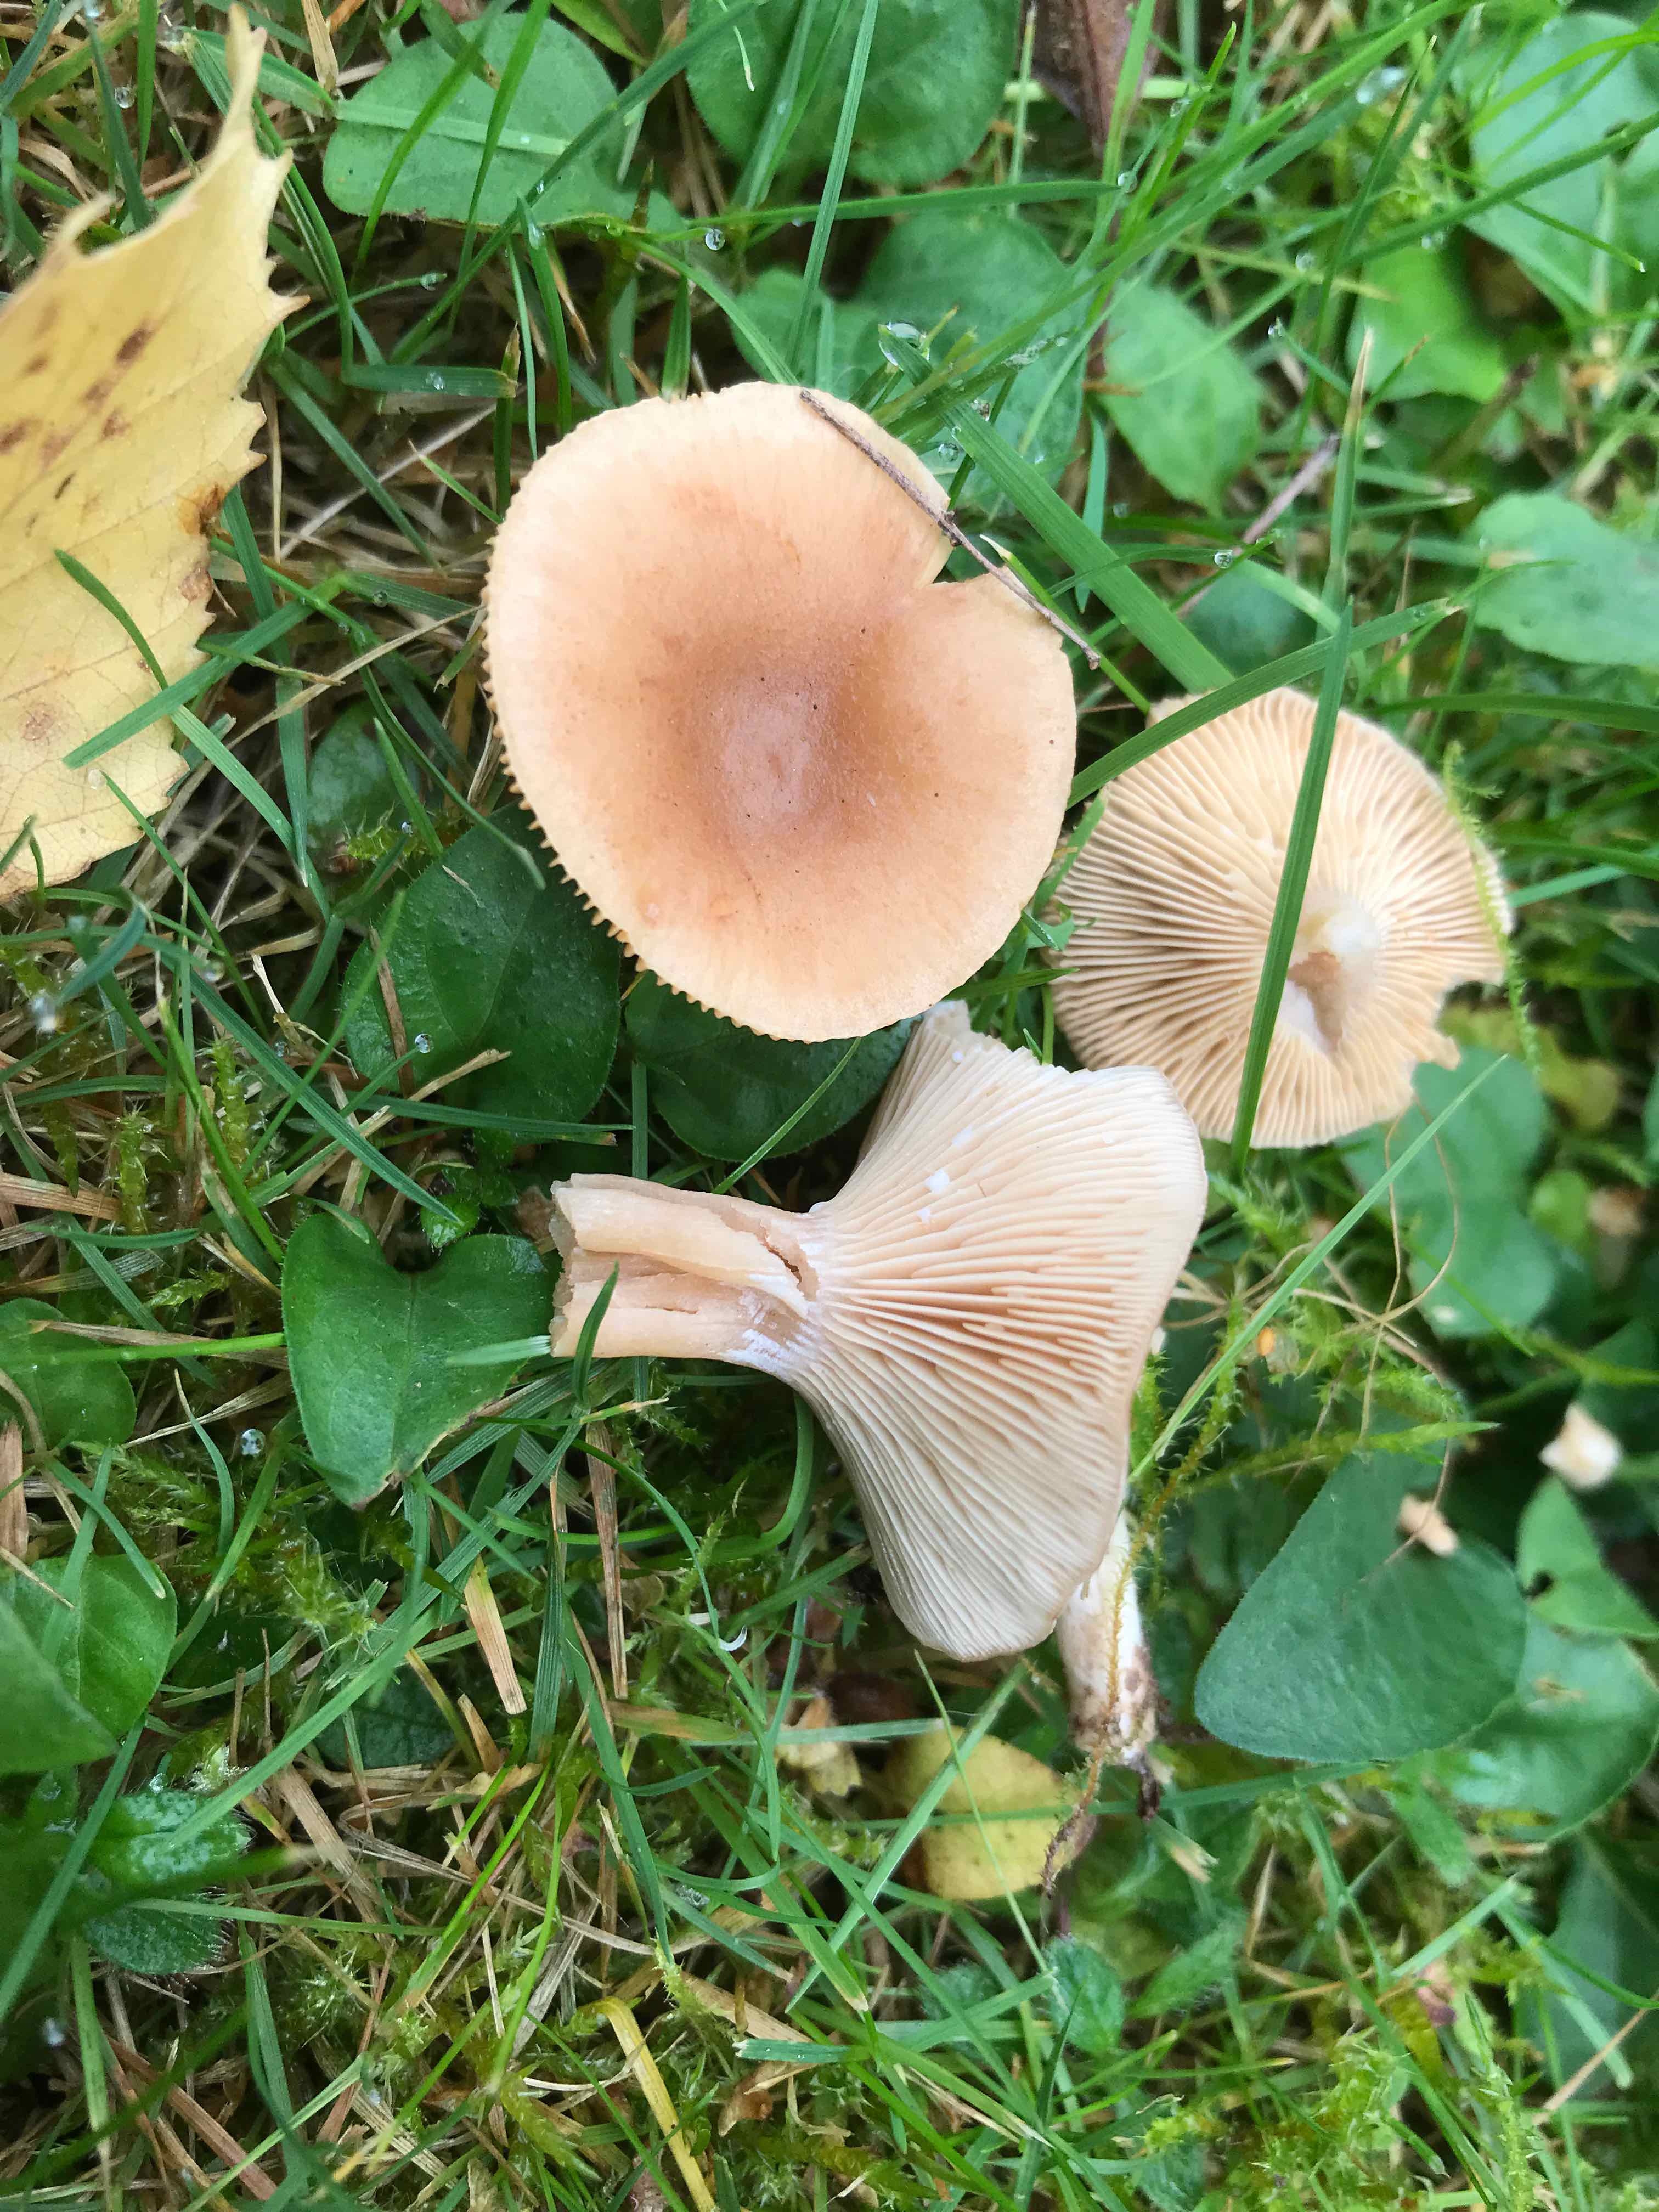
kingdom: Fungi
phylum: Basidiomycota
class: Agaricomycetes
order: Russulales
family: Russulaceae
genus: Lactarius
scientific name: Lactarius glyciosmus
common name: kokos-mælkehat
